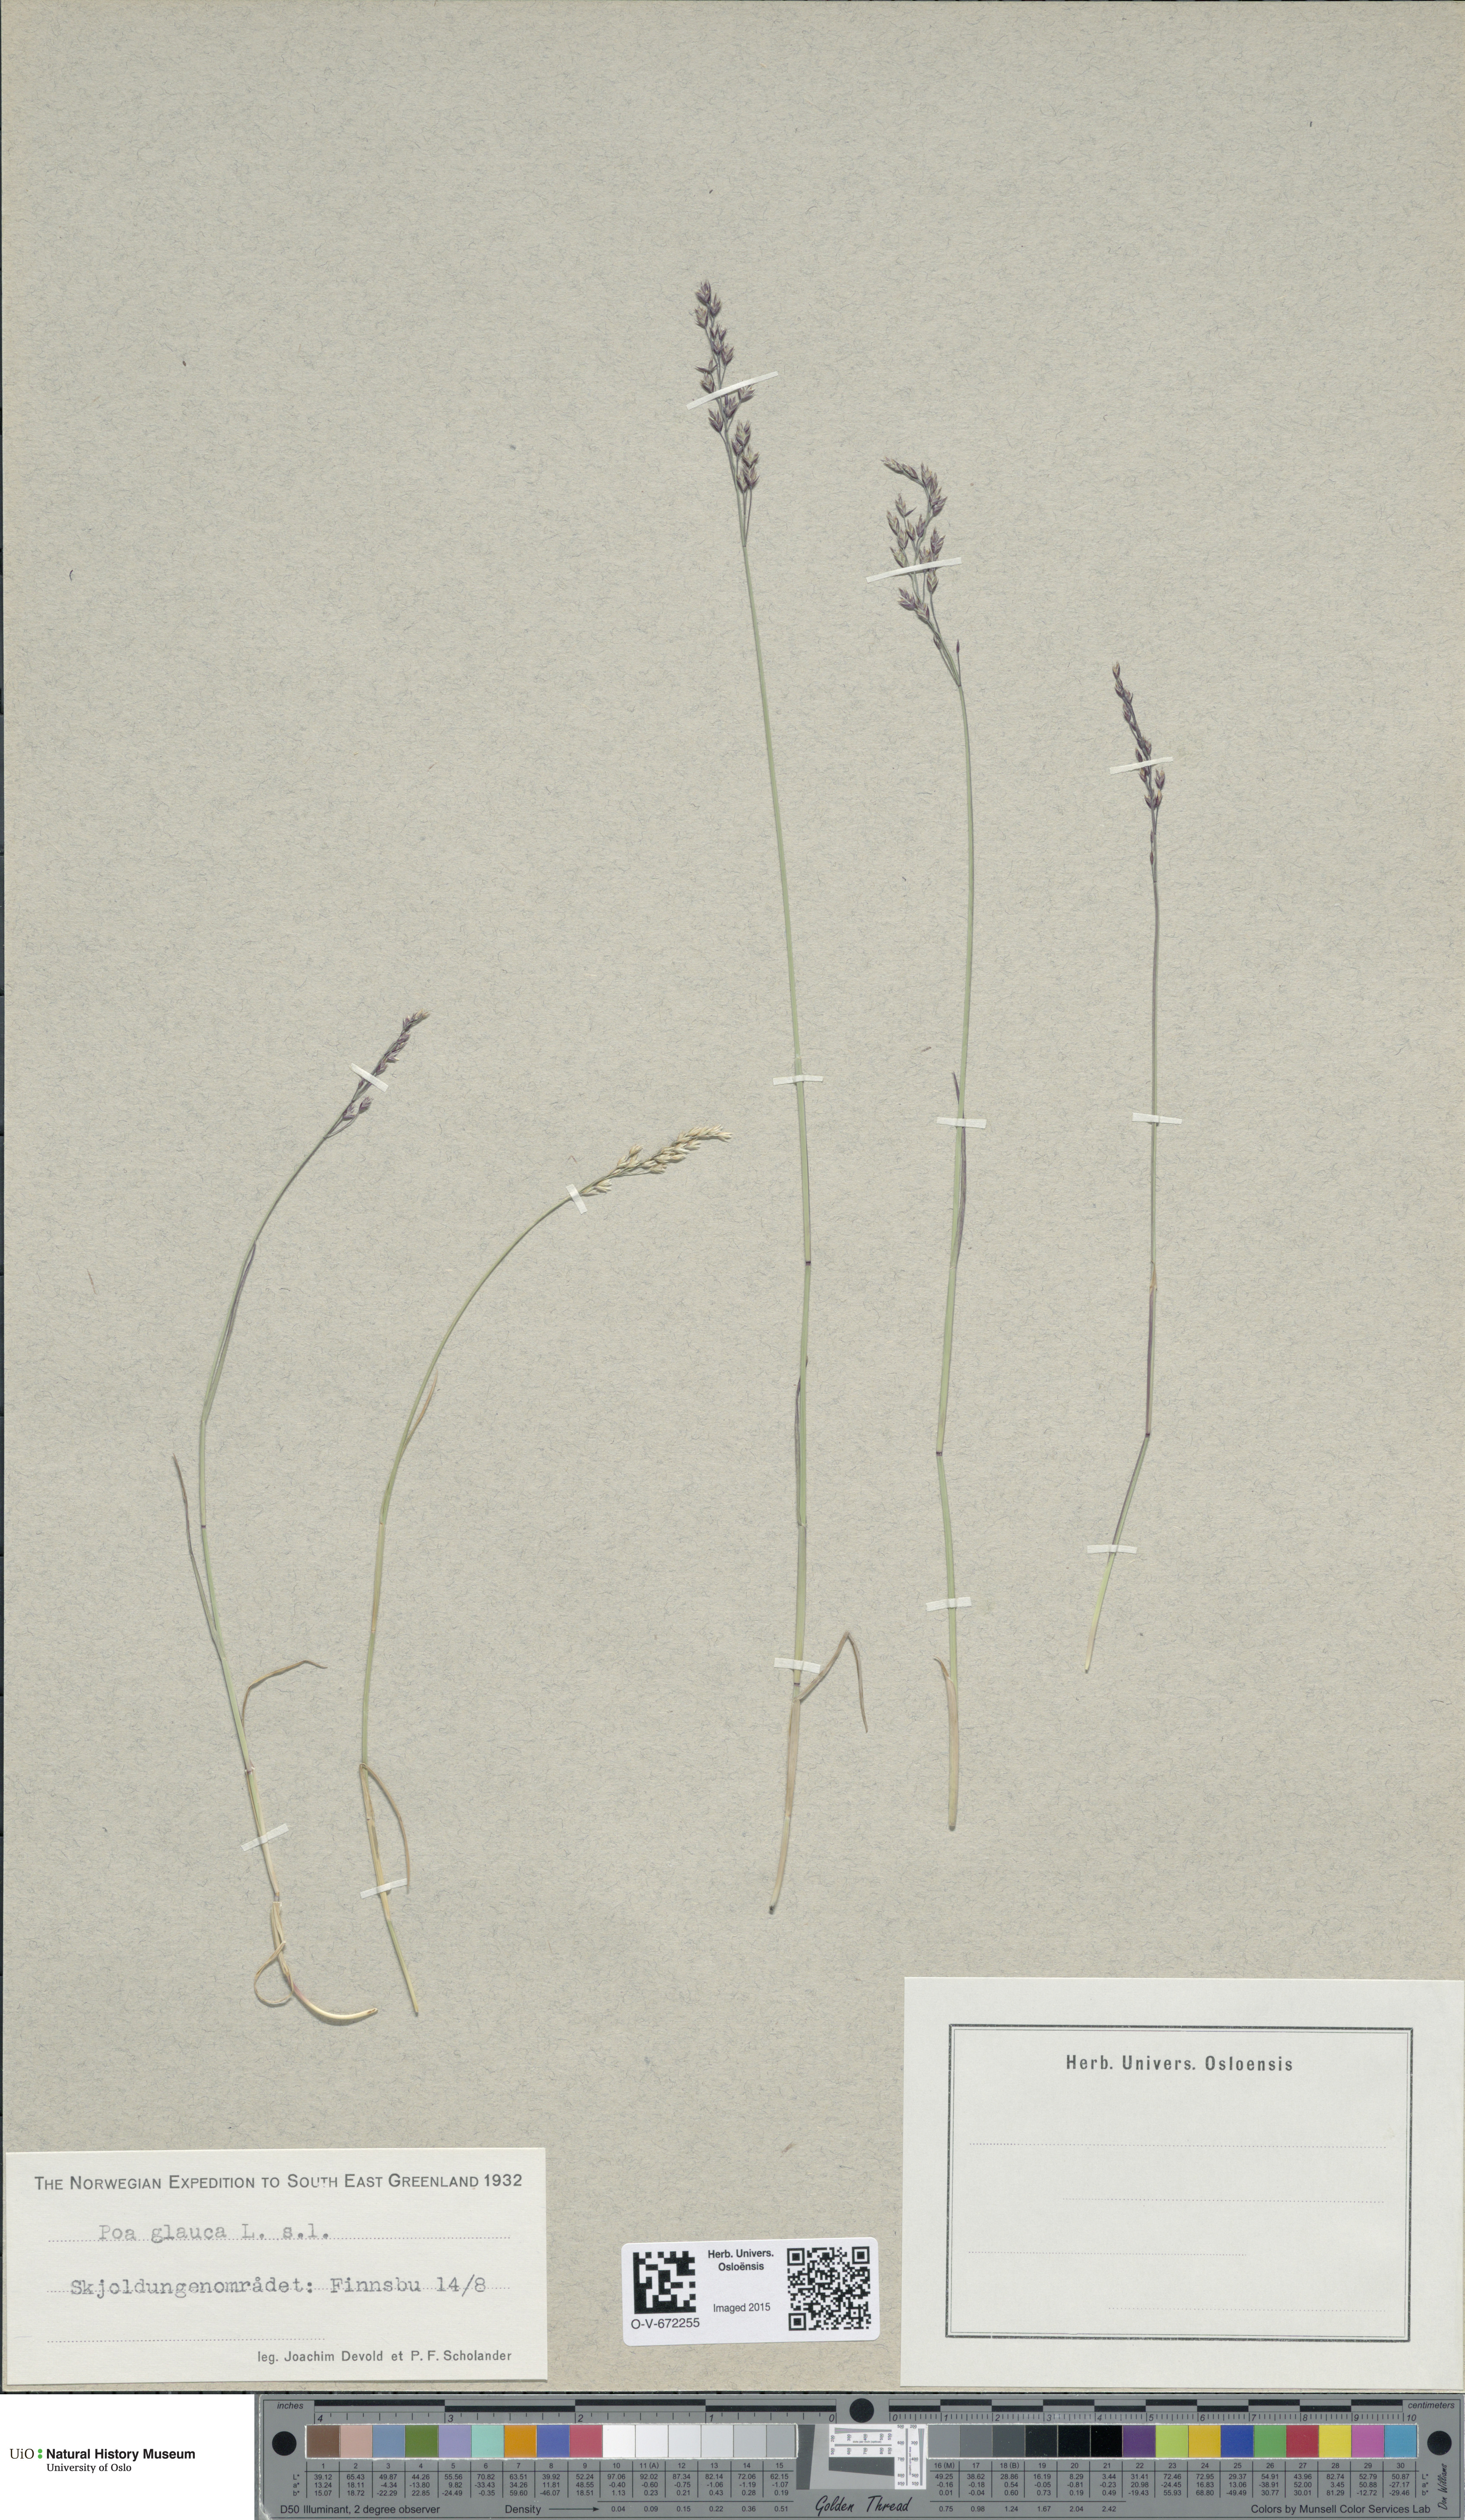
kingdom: Plantae
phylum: Tracheophyta
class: Liliopsida
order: Poales
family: Poaceae
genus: Poa
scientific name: Poa glauca
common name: Glaucous bluegrass
